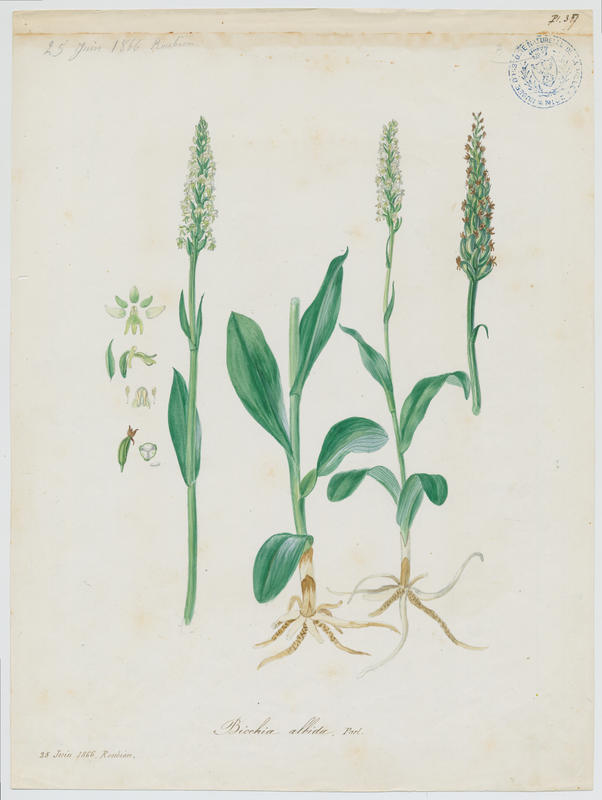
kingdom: Plantae
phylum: Tracheophyta
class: Liliopsida
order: Asparagales
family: Orchidaceae
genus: Pseudorchis
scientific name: Pseudorchis albida
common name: Small-white orchid
